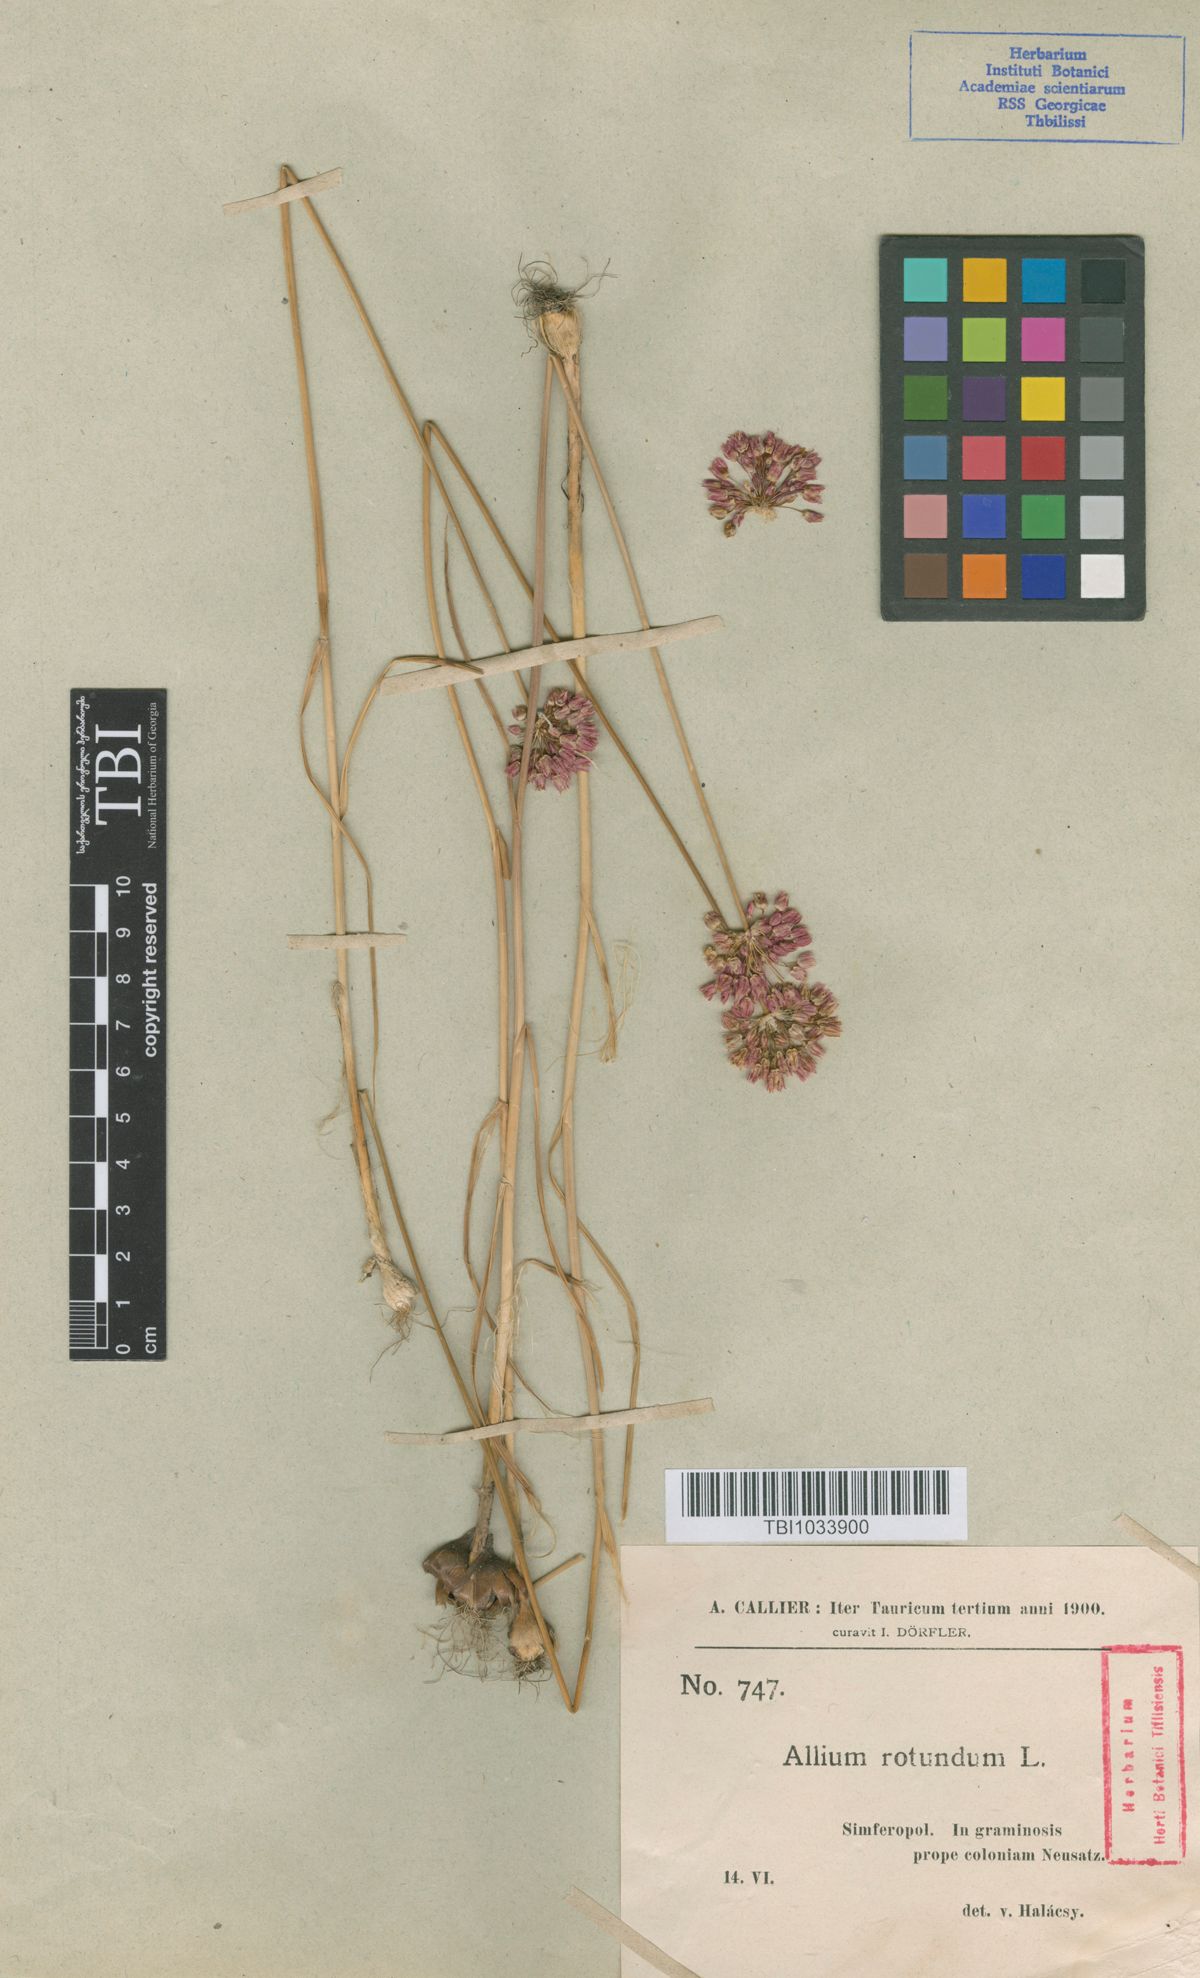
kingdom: Plantae
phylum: Tracheophyta
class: Liliopsida
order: Asparagales
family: Amaryllidaceae
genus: Allium
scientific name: Allium rotundum
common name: Sand leek
